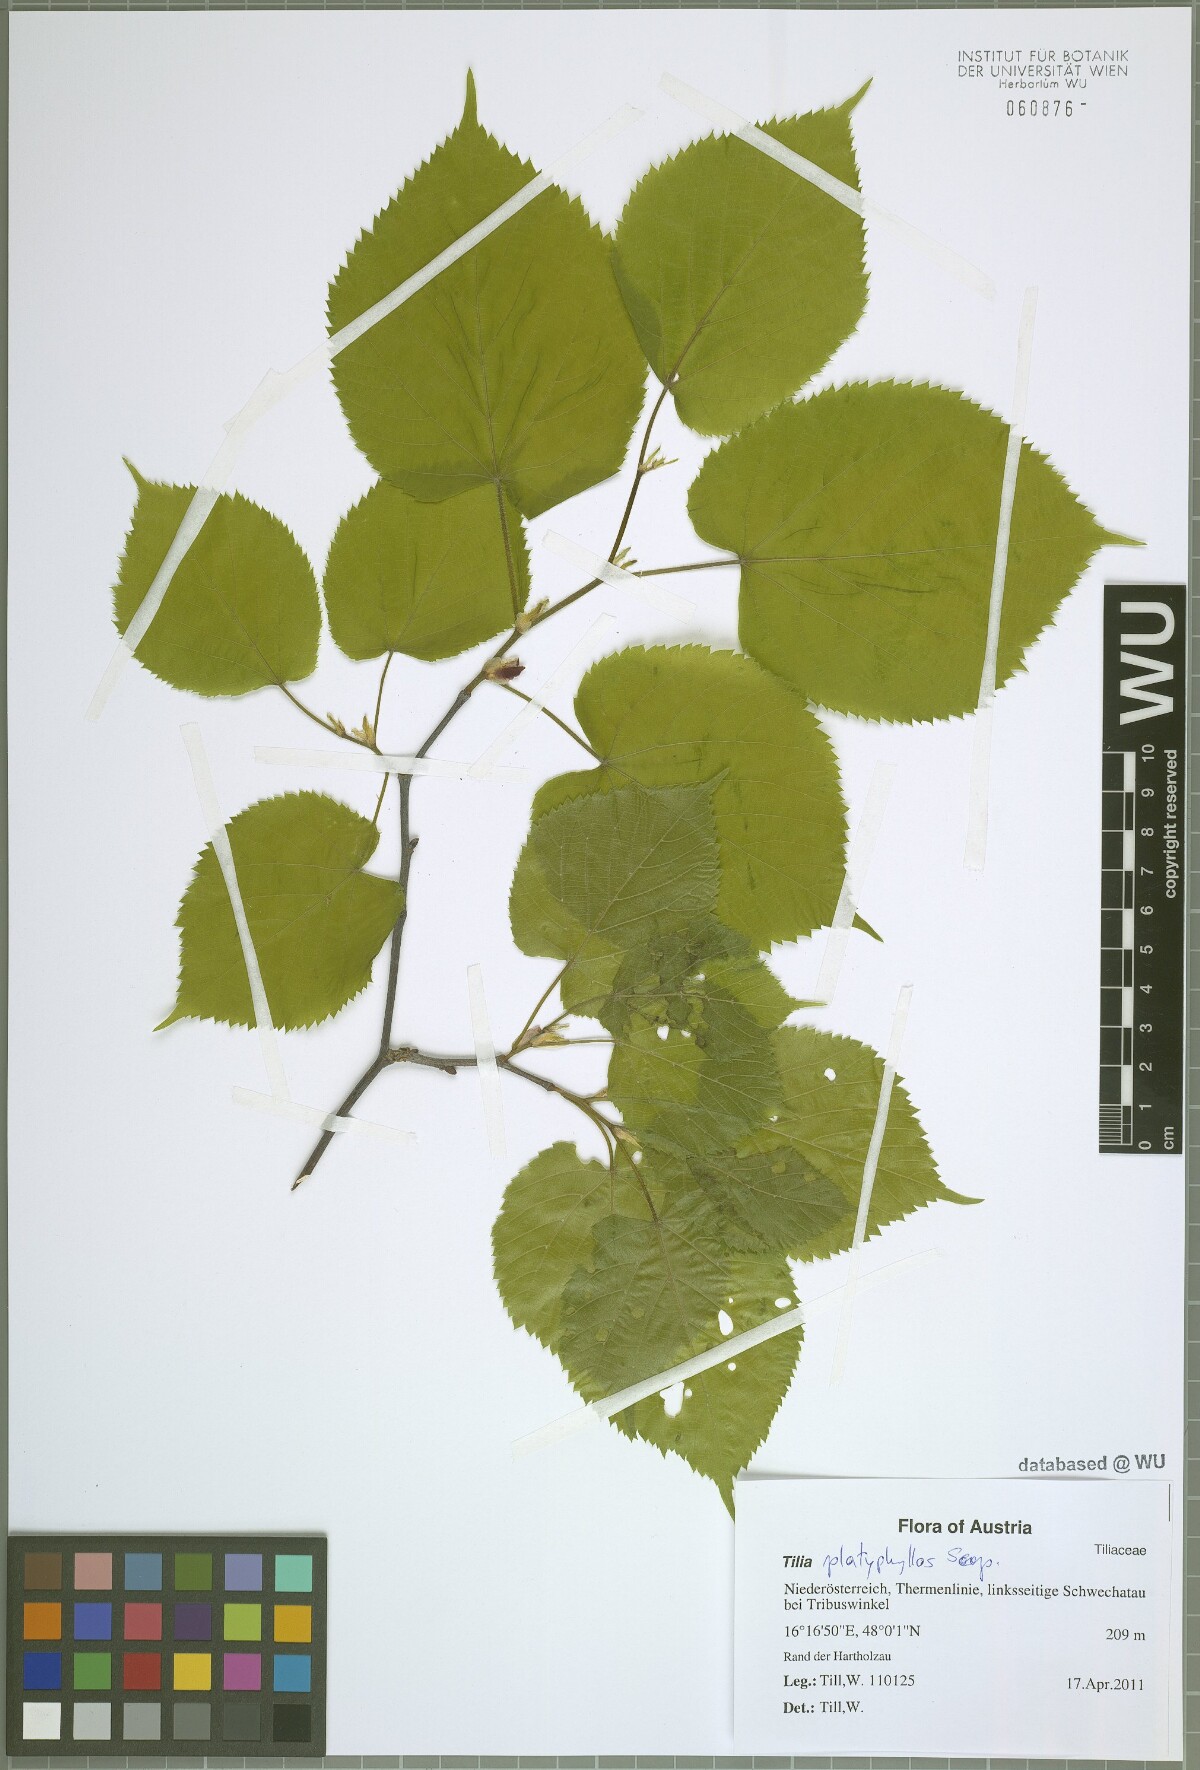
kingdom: Plantae
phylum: Tracheophyta
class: Magnoliopsida
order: Malvales
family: Malvaceae
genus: Tilia
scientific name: Tilia platyphyllos
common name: Large-leaved lime
